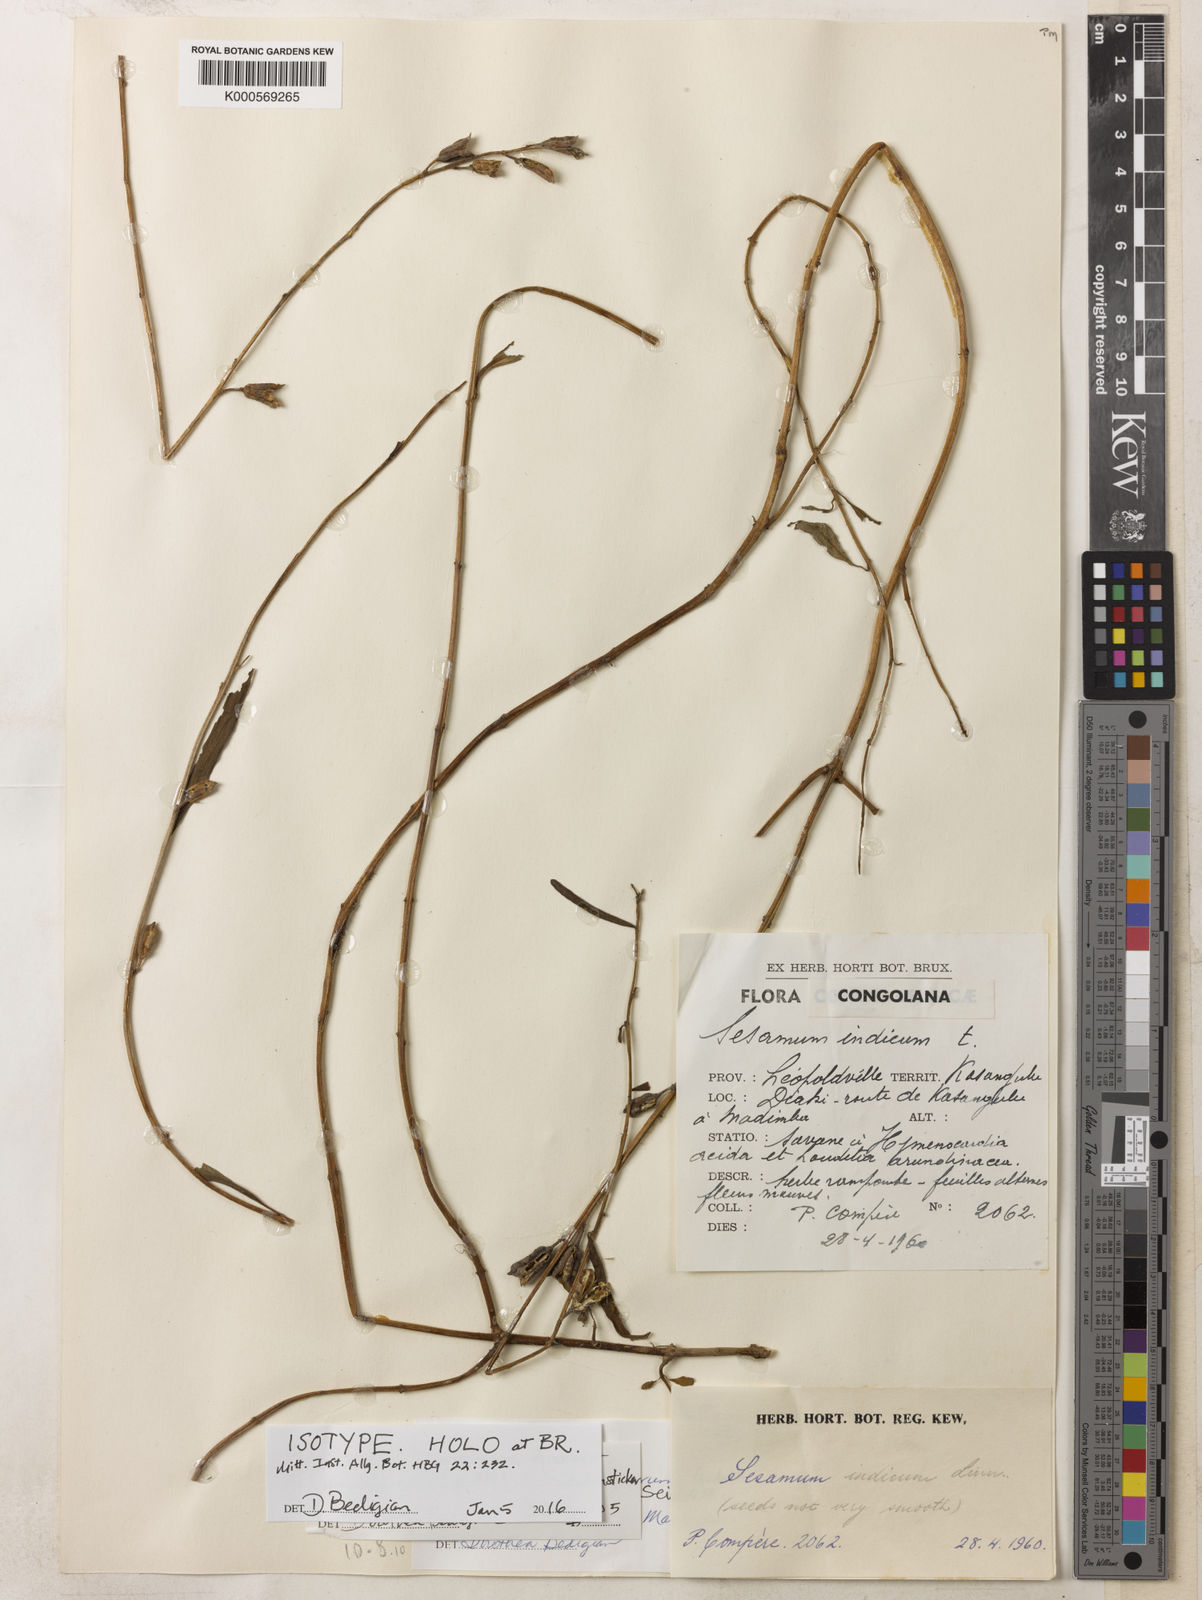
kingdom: Plantae
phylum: Tracheophyta
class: Magnoliopsida
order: Lamiales
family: Pedaliaceae
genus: Sesamum
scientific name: Sesamum parviflorum
